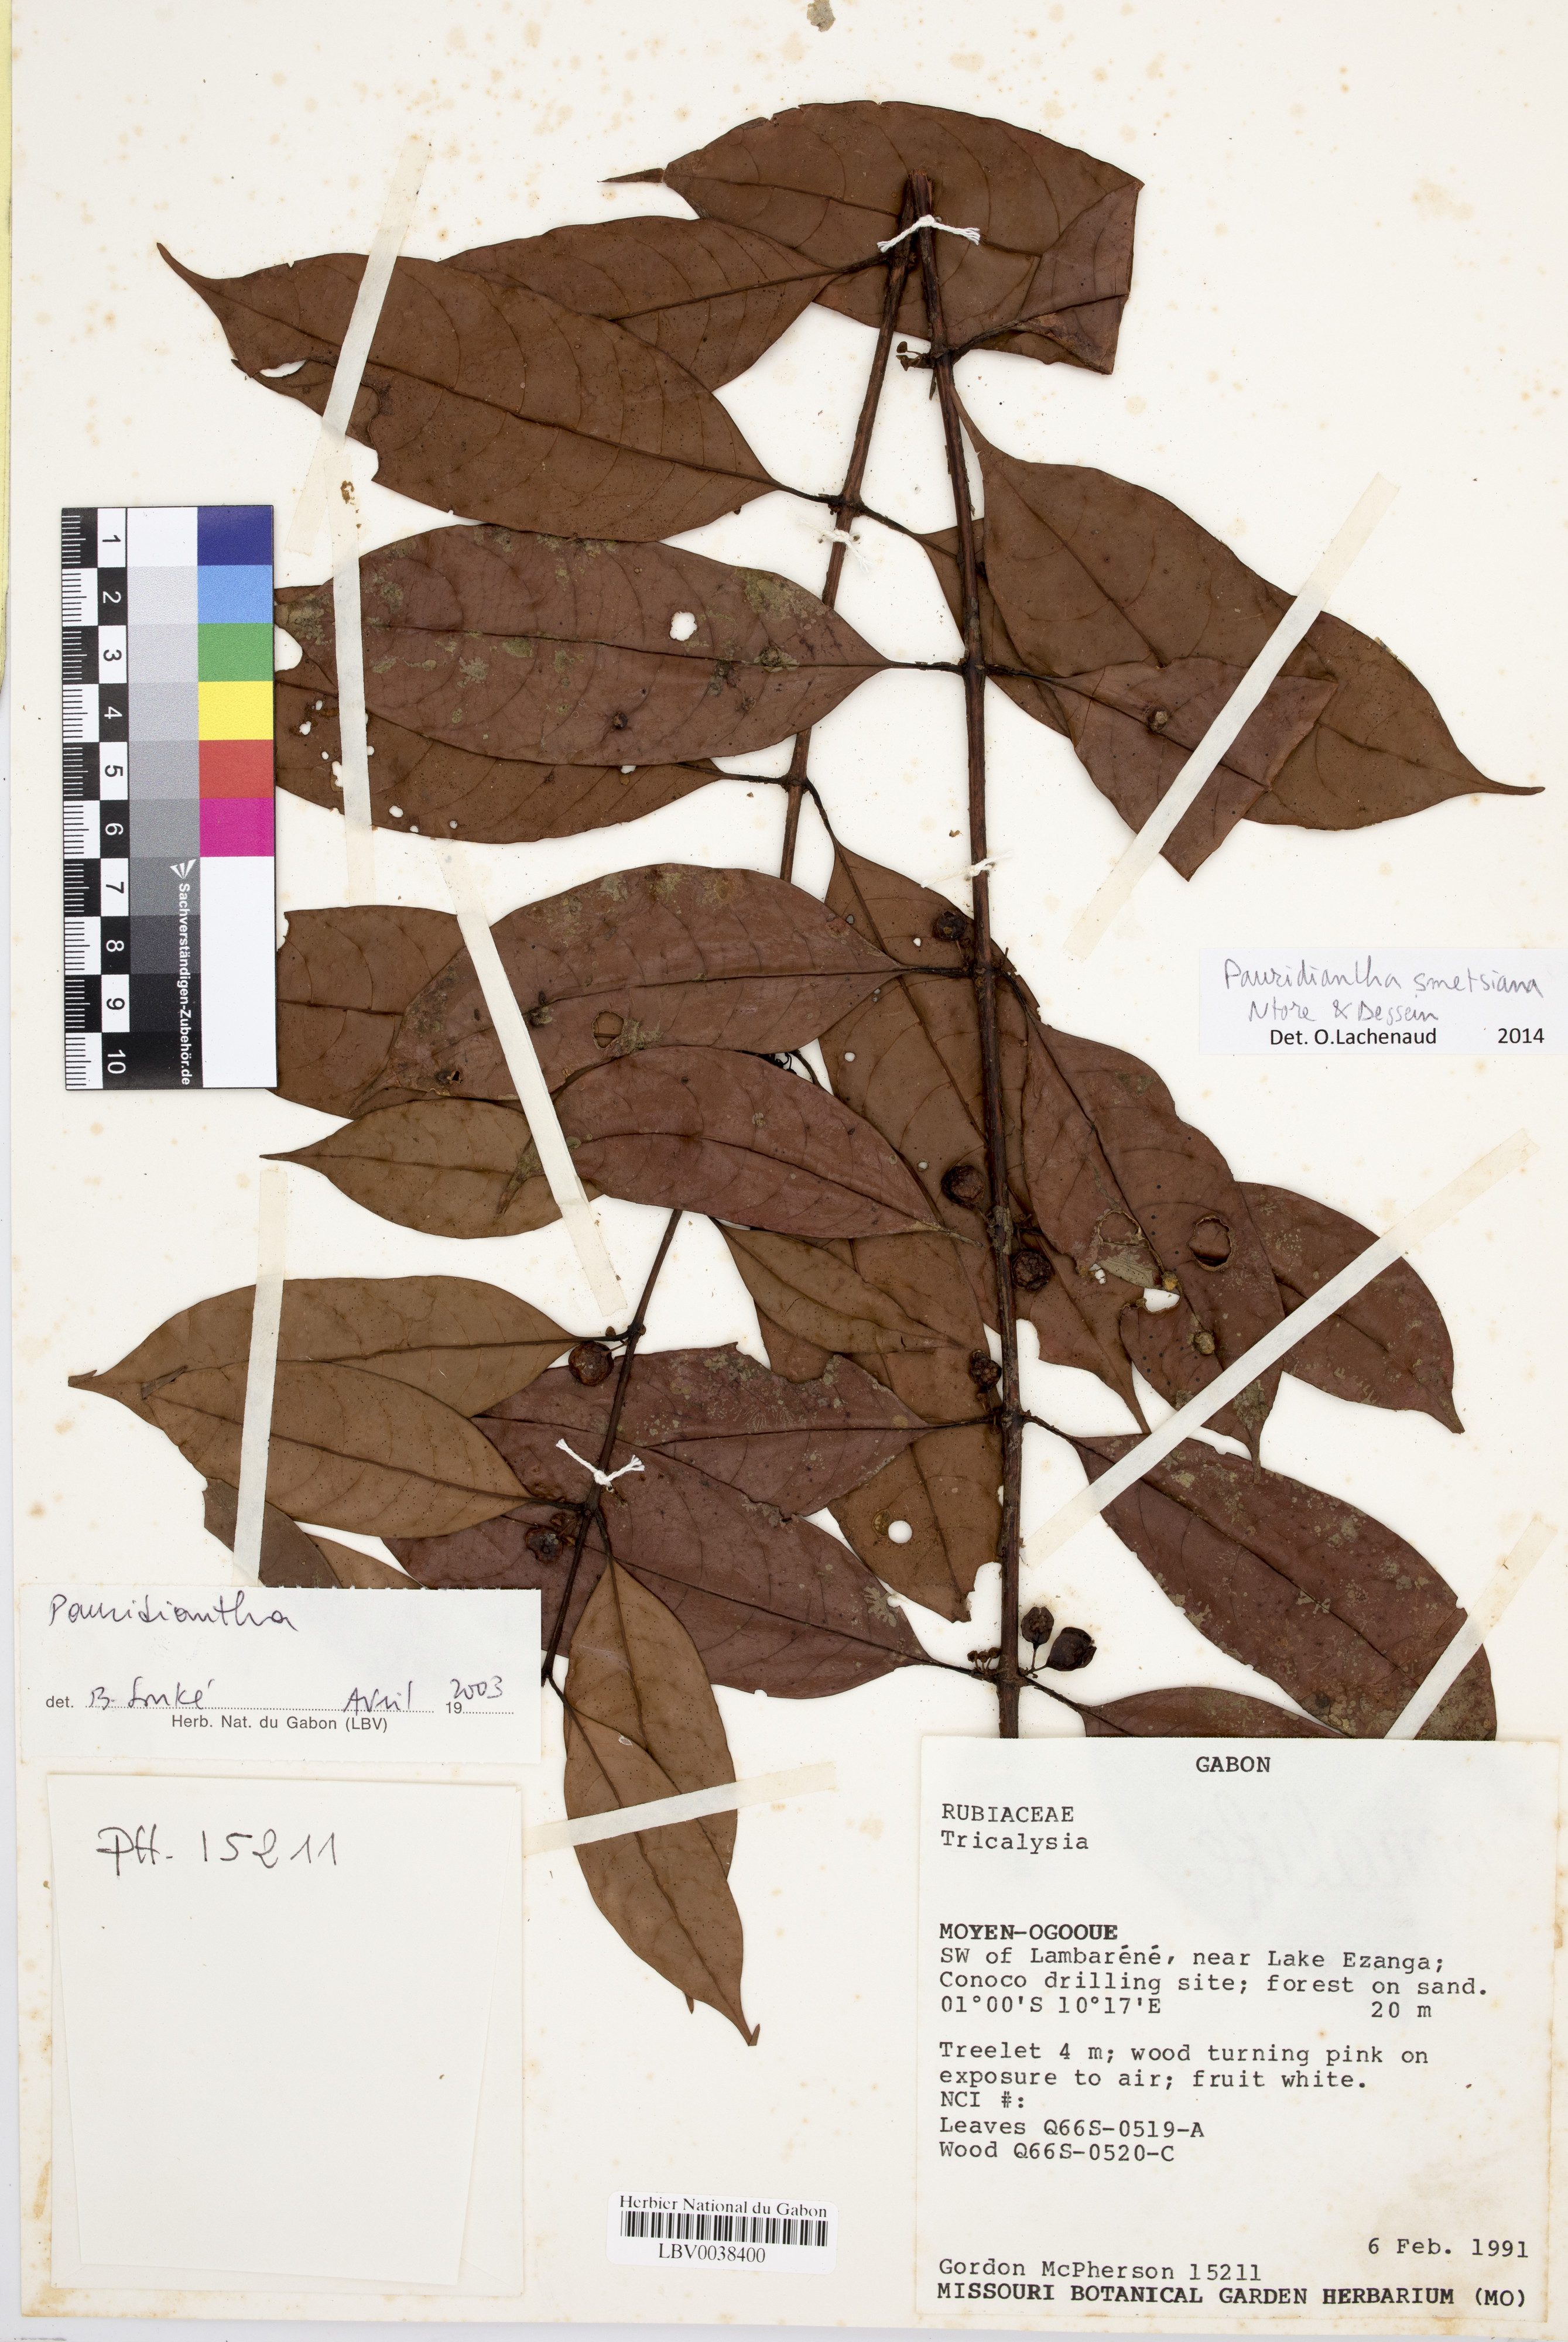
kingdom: Plantae
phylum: Tracheophyta
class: Magnoliopsida
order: Gentianales
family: Rubiaceae
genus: Pauridiantha
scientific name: Pauridiantha smetsiana
